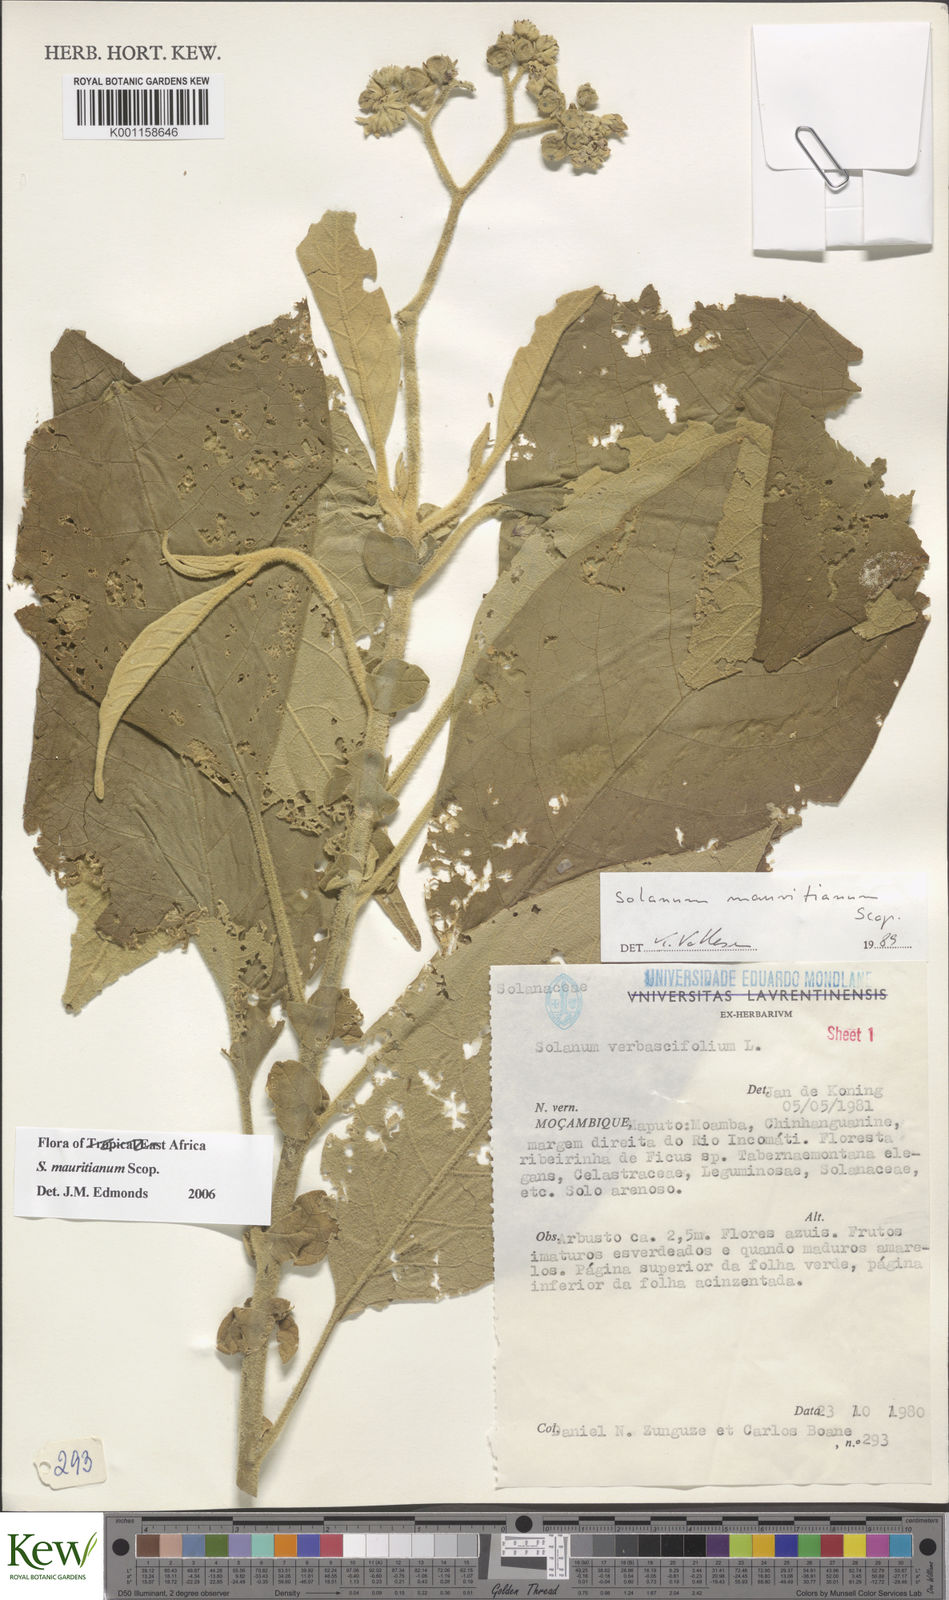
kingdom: Plantae
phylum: Tracheophyta
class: Magnoliopsida
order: Solanales
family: Solanaceae
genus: Solanum
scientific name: Solanum mauritianum
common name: Earleaf nightshade
